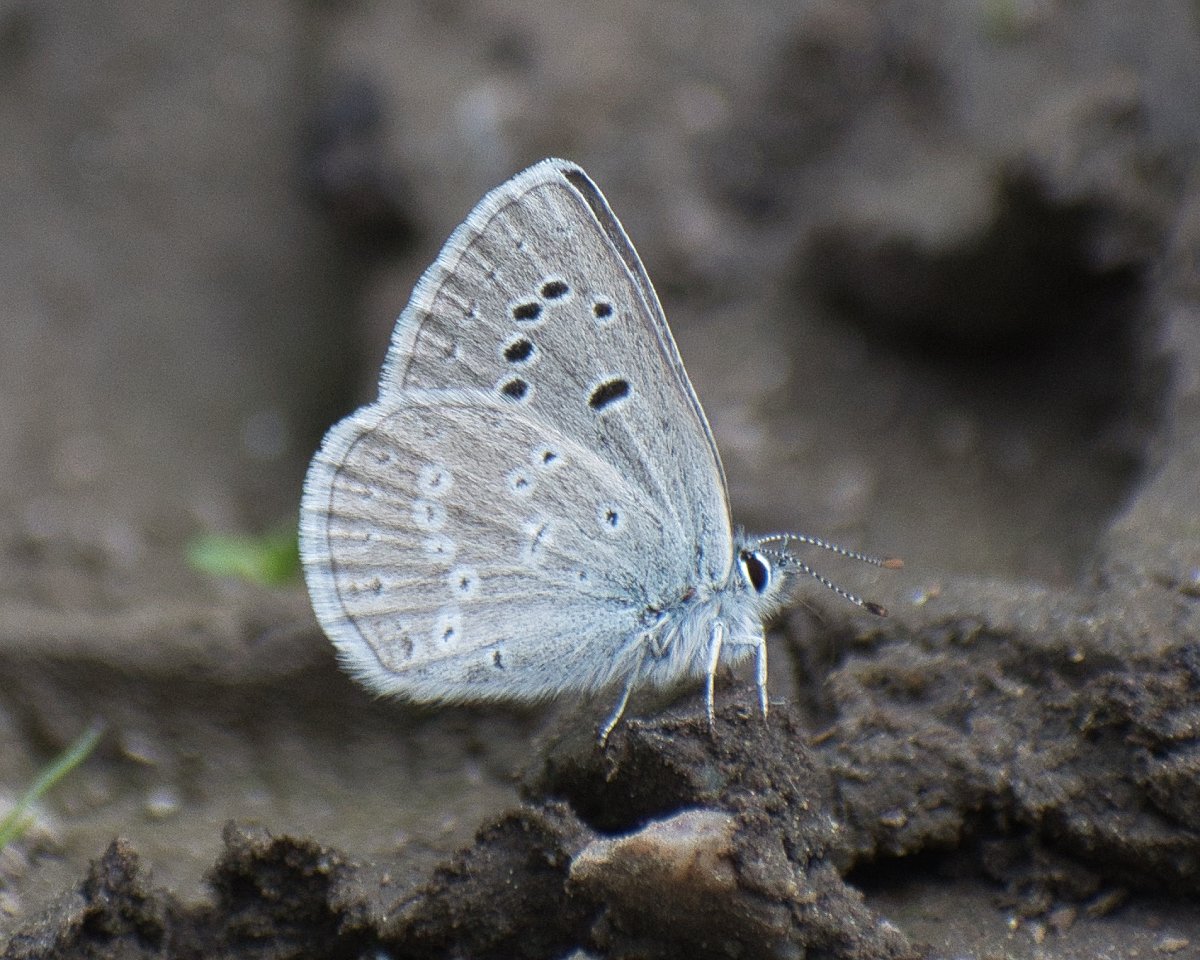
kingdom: Animalia
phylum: Arthropoda
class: Insecta
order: Lepidoptera
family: Lycaenidae
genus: Icaricia
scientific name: Icaricia icarioides
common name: Boisduval's Blue
